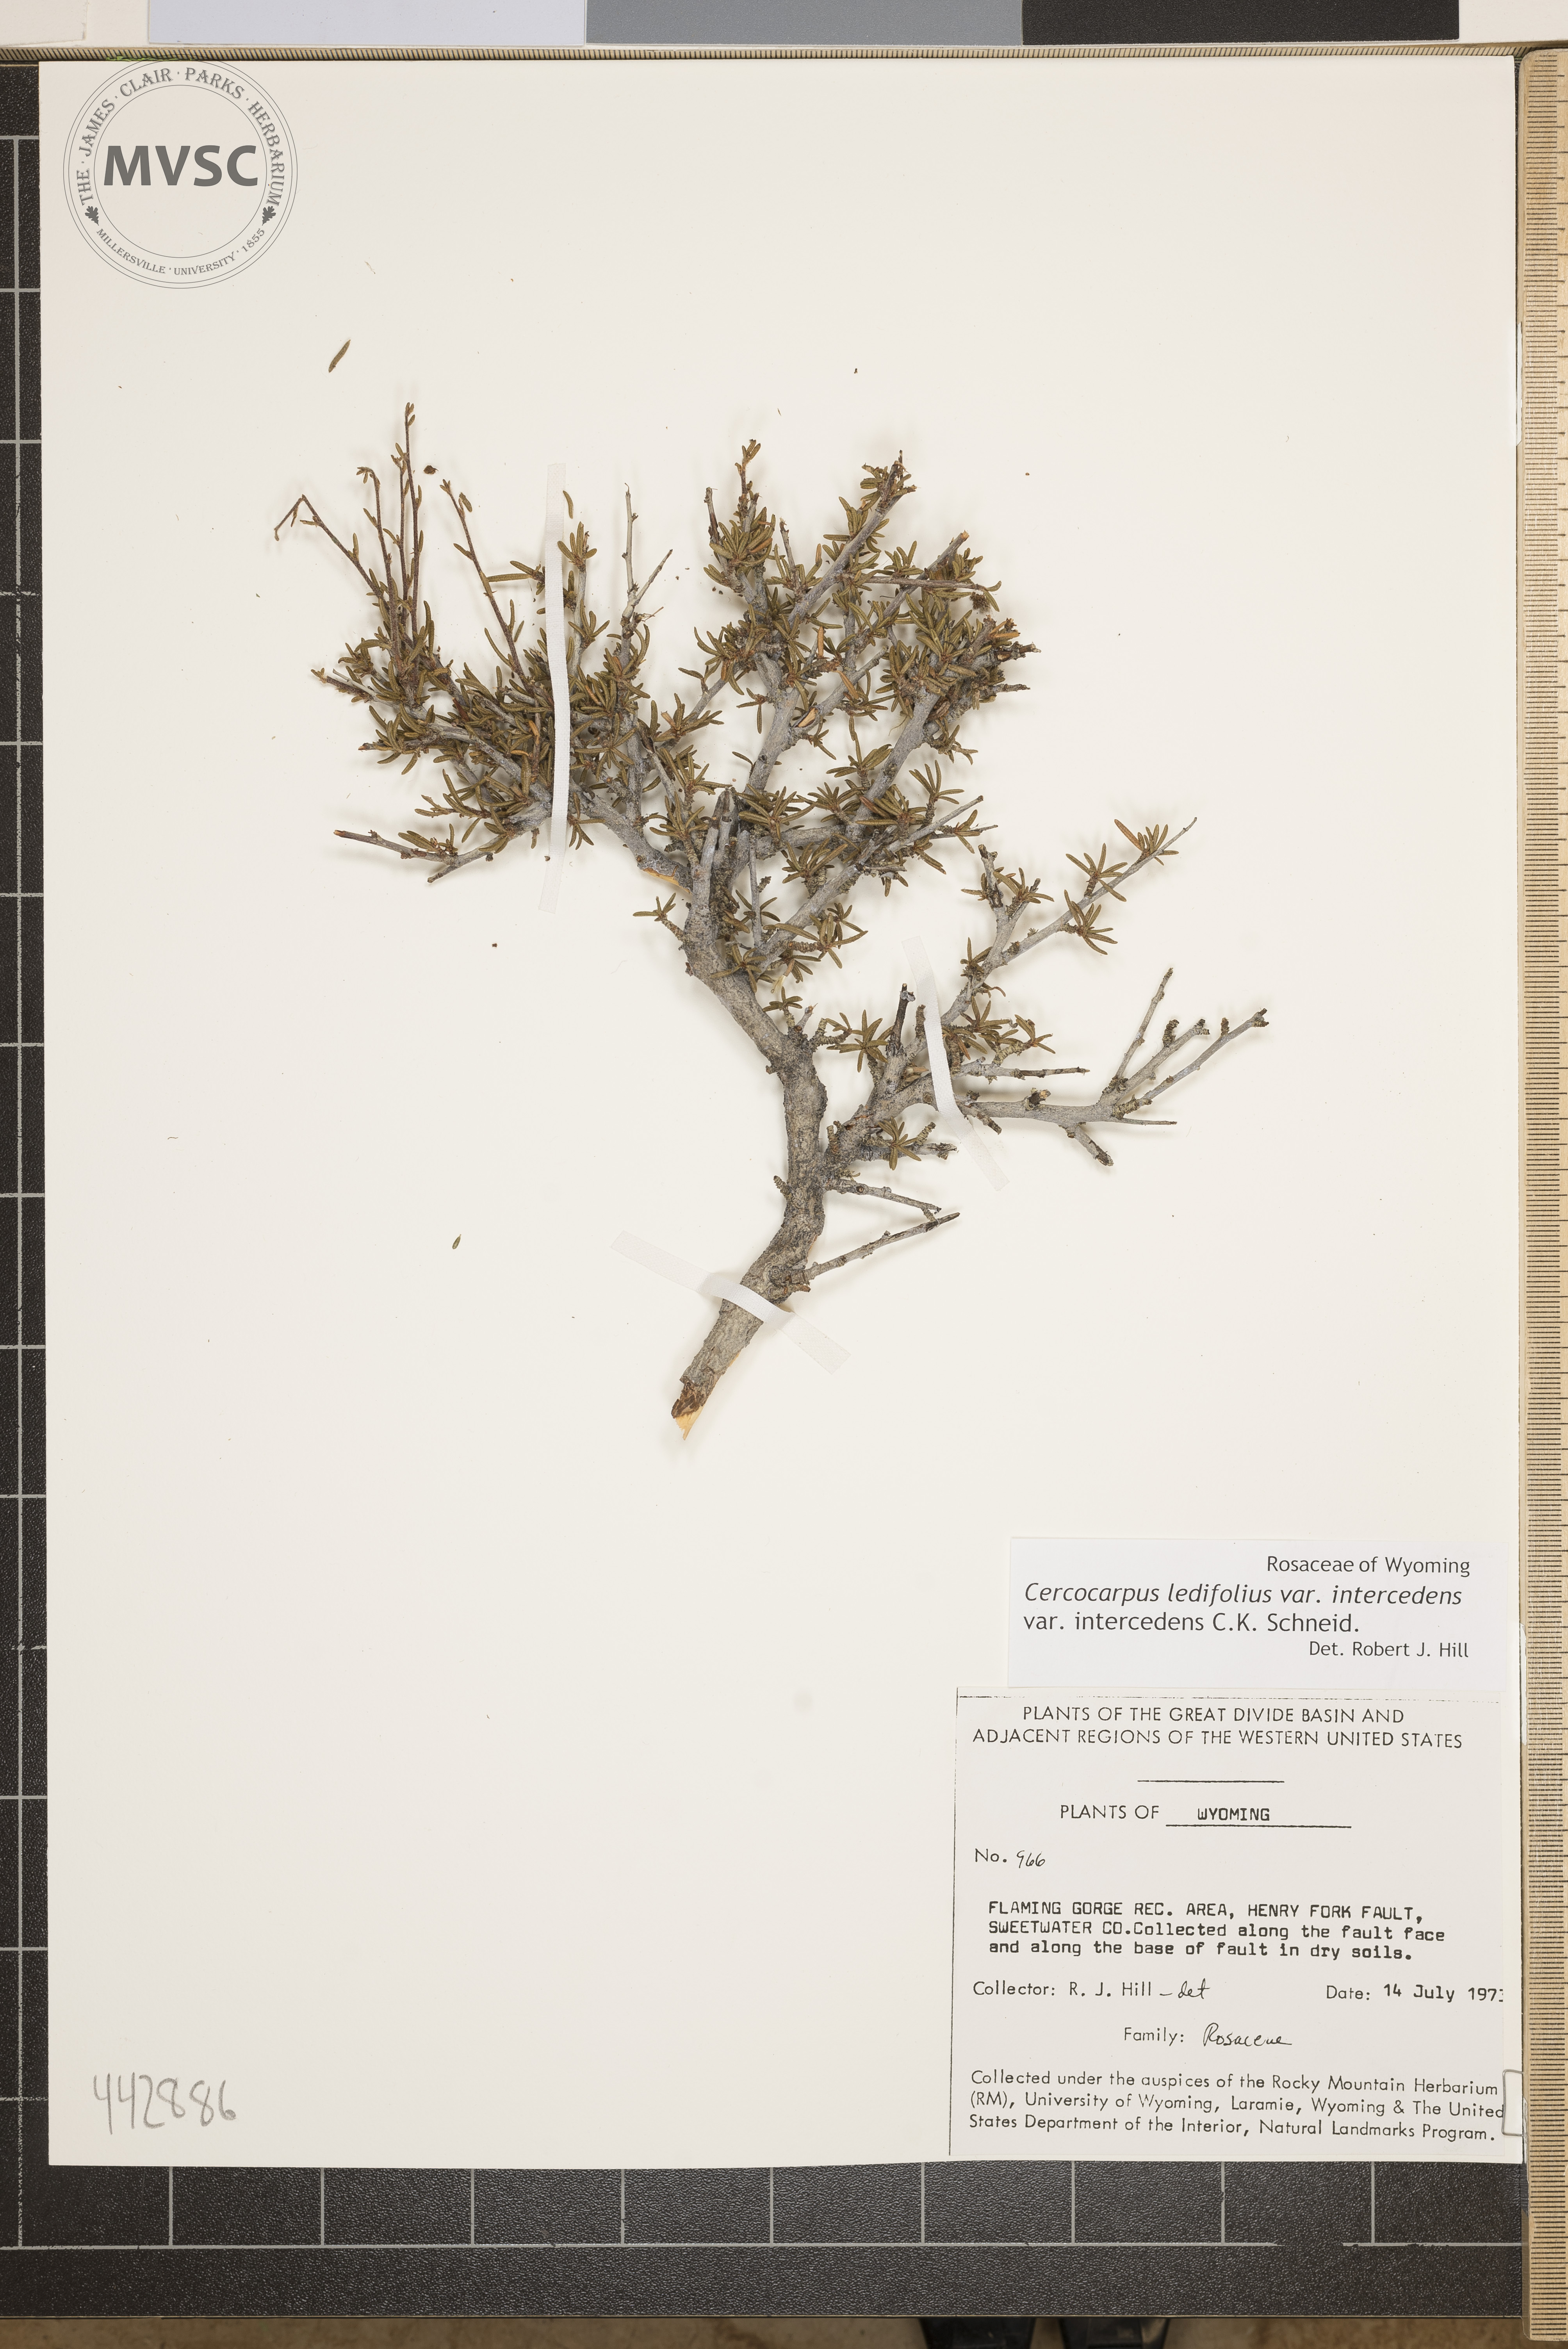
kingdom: Plantae
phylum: Tracheophyta
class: Magnoliopsida
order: Rosales
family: Rosaceae
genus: Cercocarpus
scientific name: Cercocarpus ledifolius
